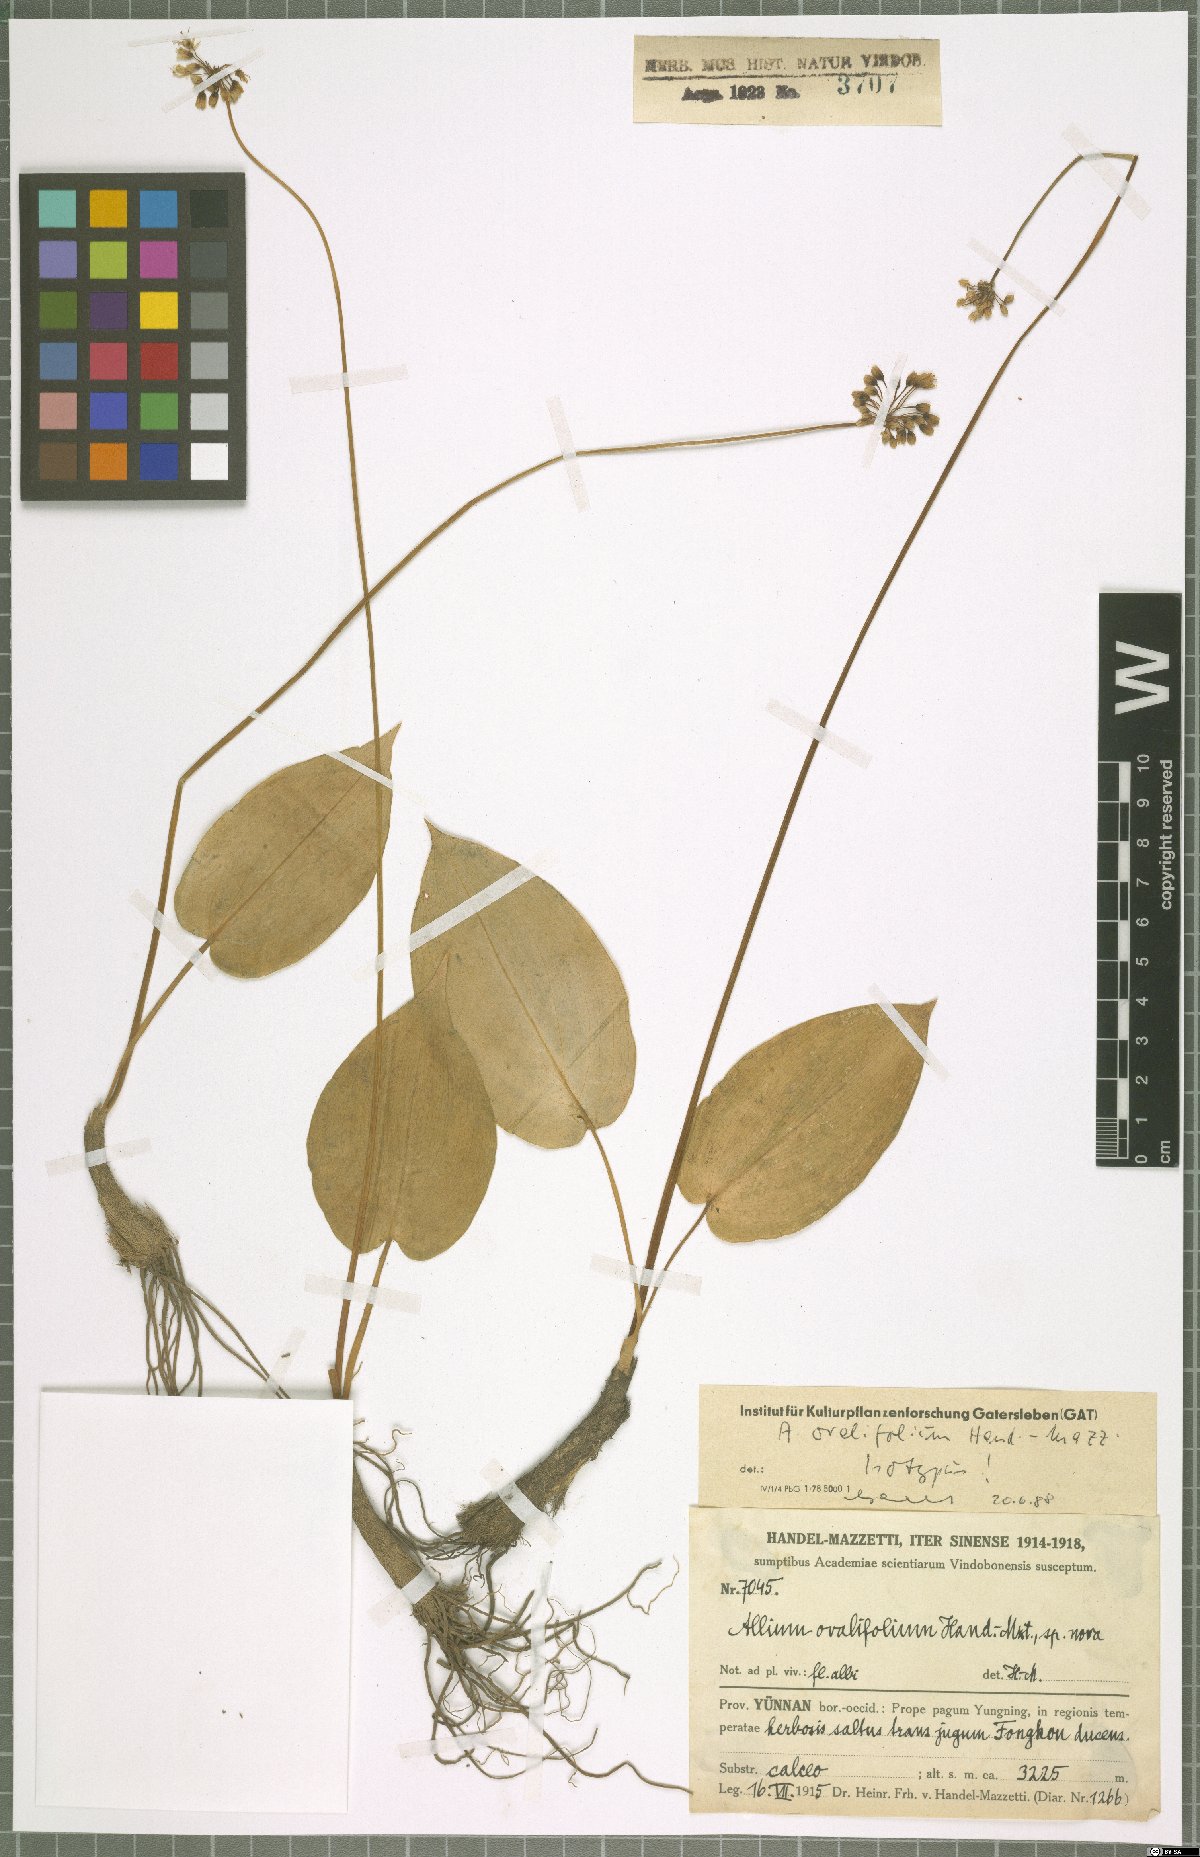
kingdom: Plantae
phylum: Tracheophyta
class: Liliopsida
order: Asparagales
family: Amaryllidaceae
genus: Allium
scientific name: Allium ovalifolium
